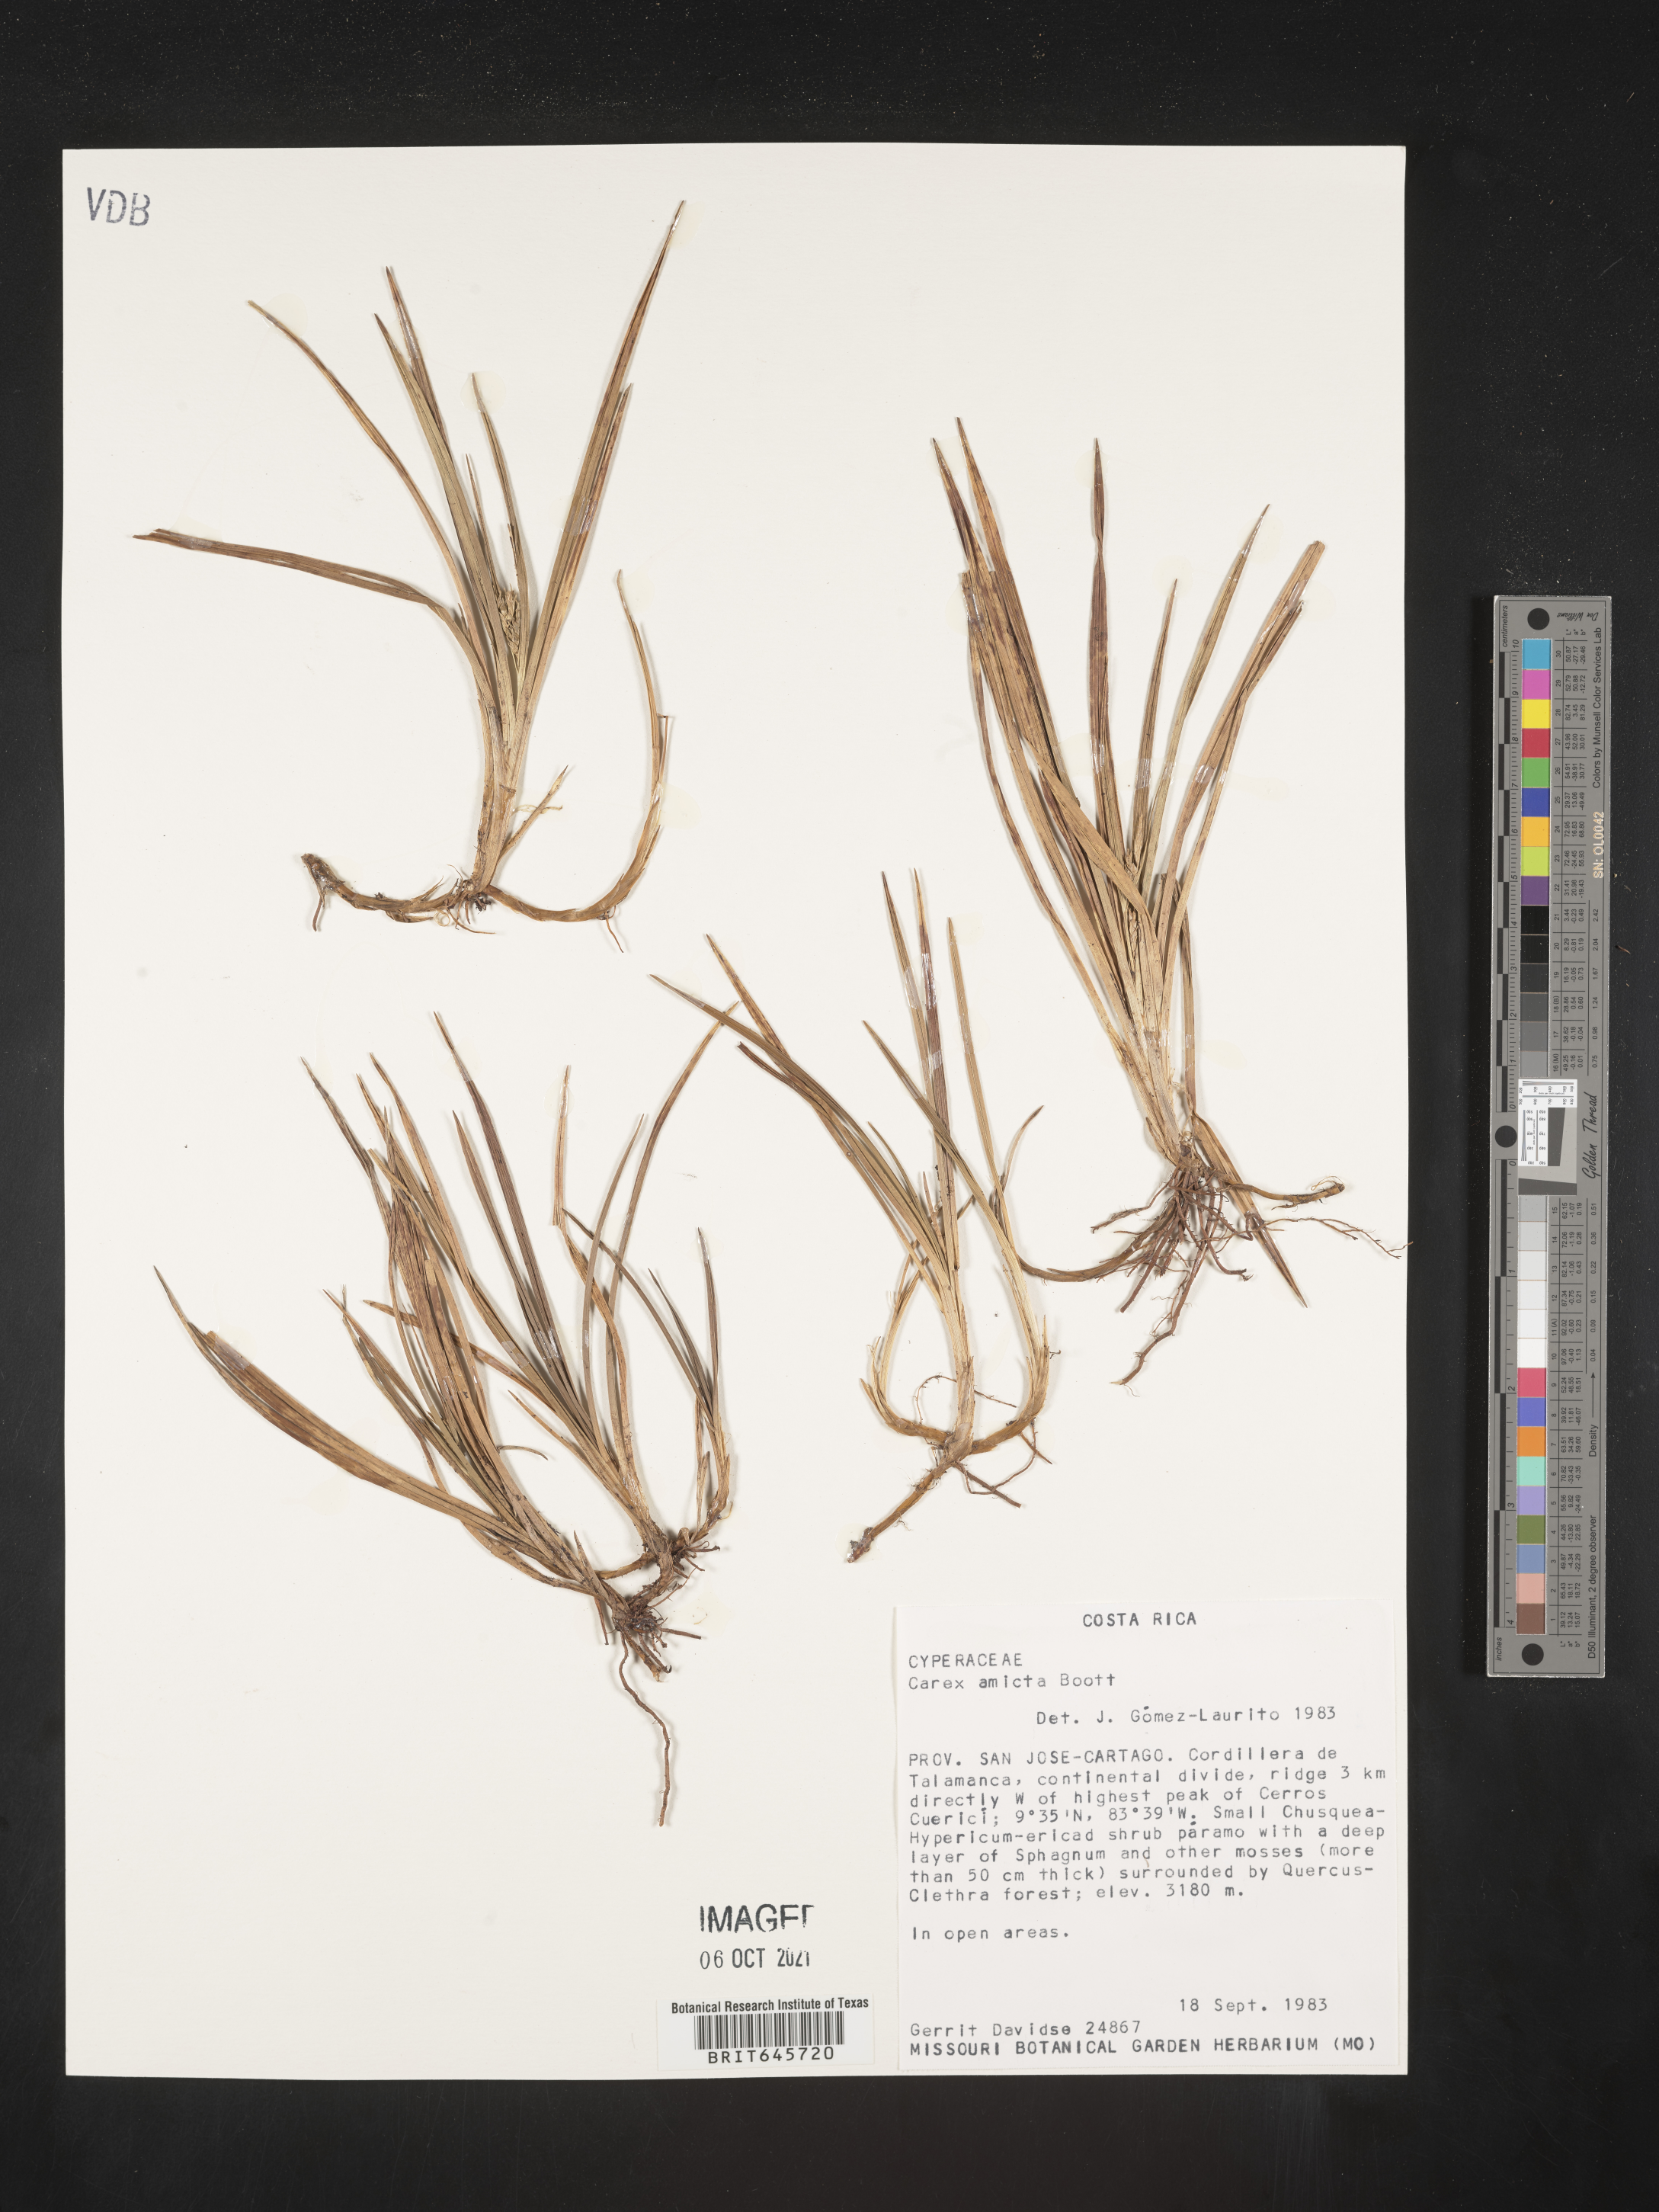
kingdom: Plantae
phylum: Tracheophyta
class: Liliopsida
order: Poales
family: Cyperaceae
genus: Carex
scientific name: Carex amicta
